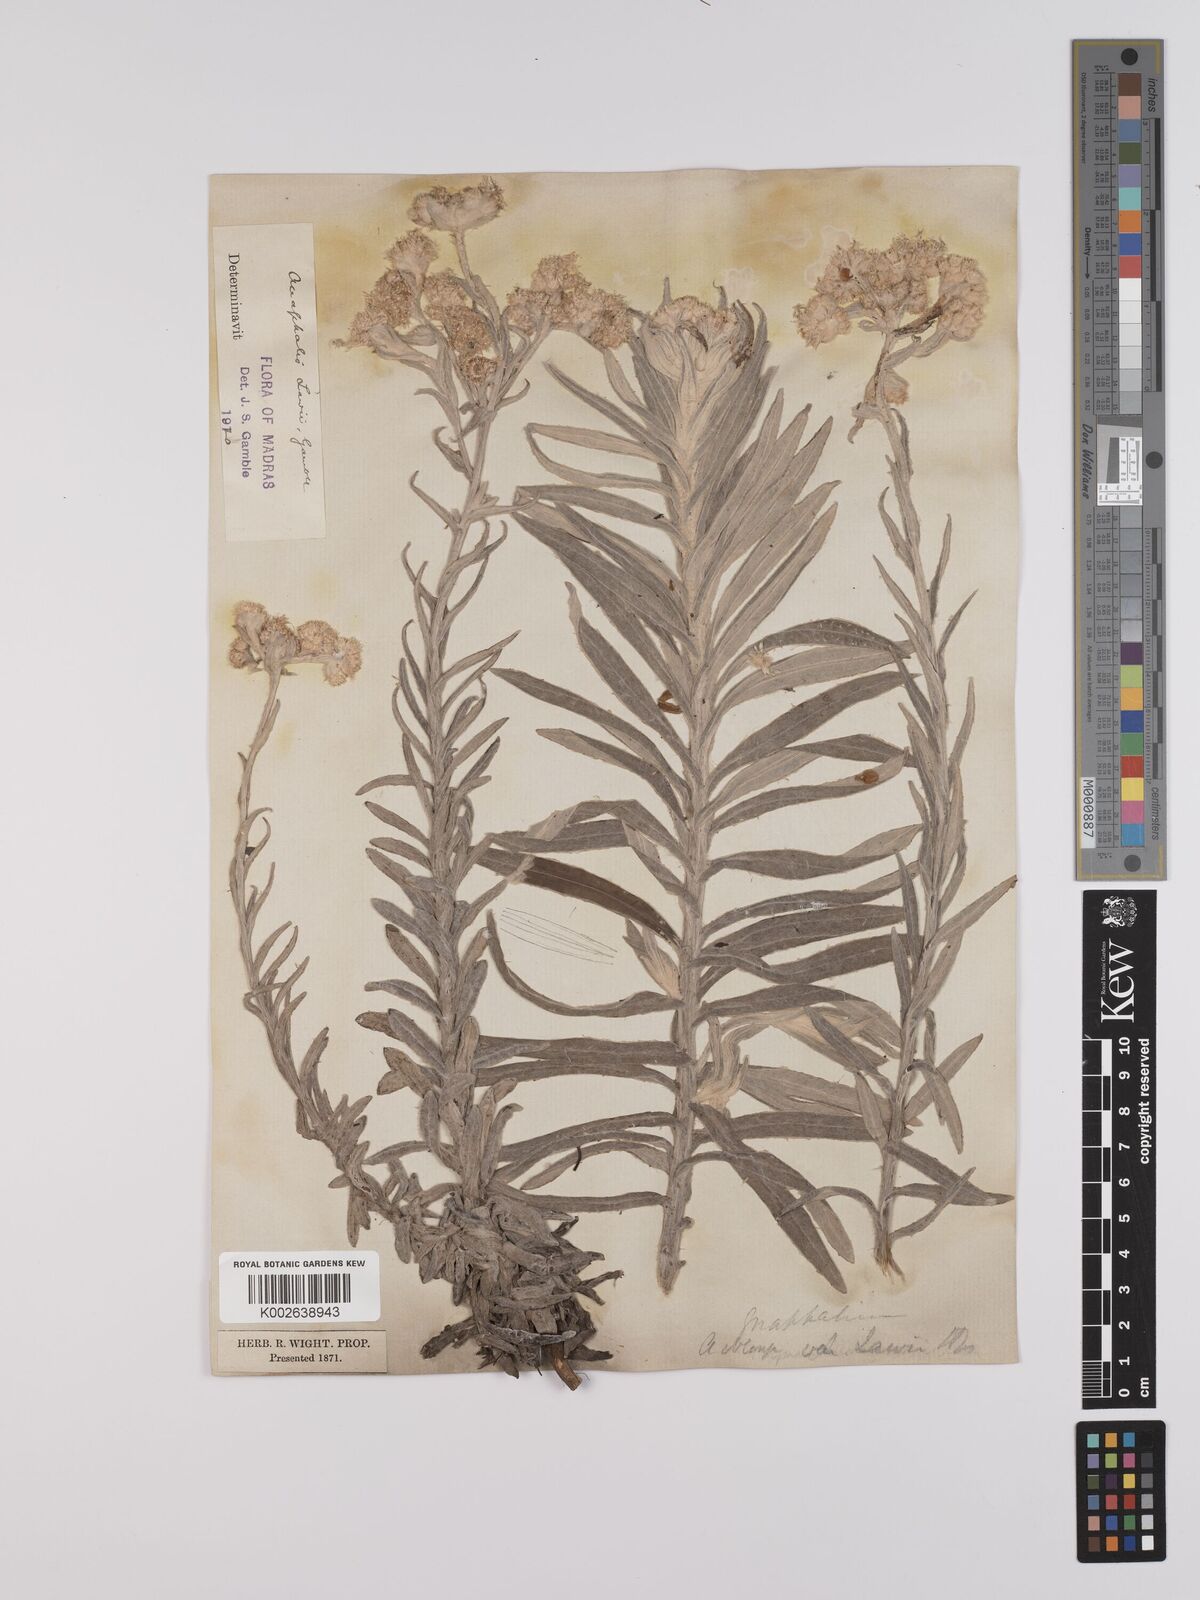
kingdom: Plantae
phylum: Tracheophyta
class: Magnoliopsida
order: Asterales
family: Asteraceae
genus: Anaphalis
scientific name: Anaphalis lawii
